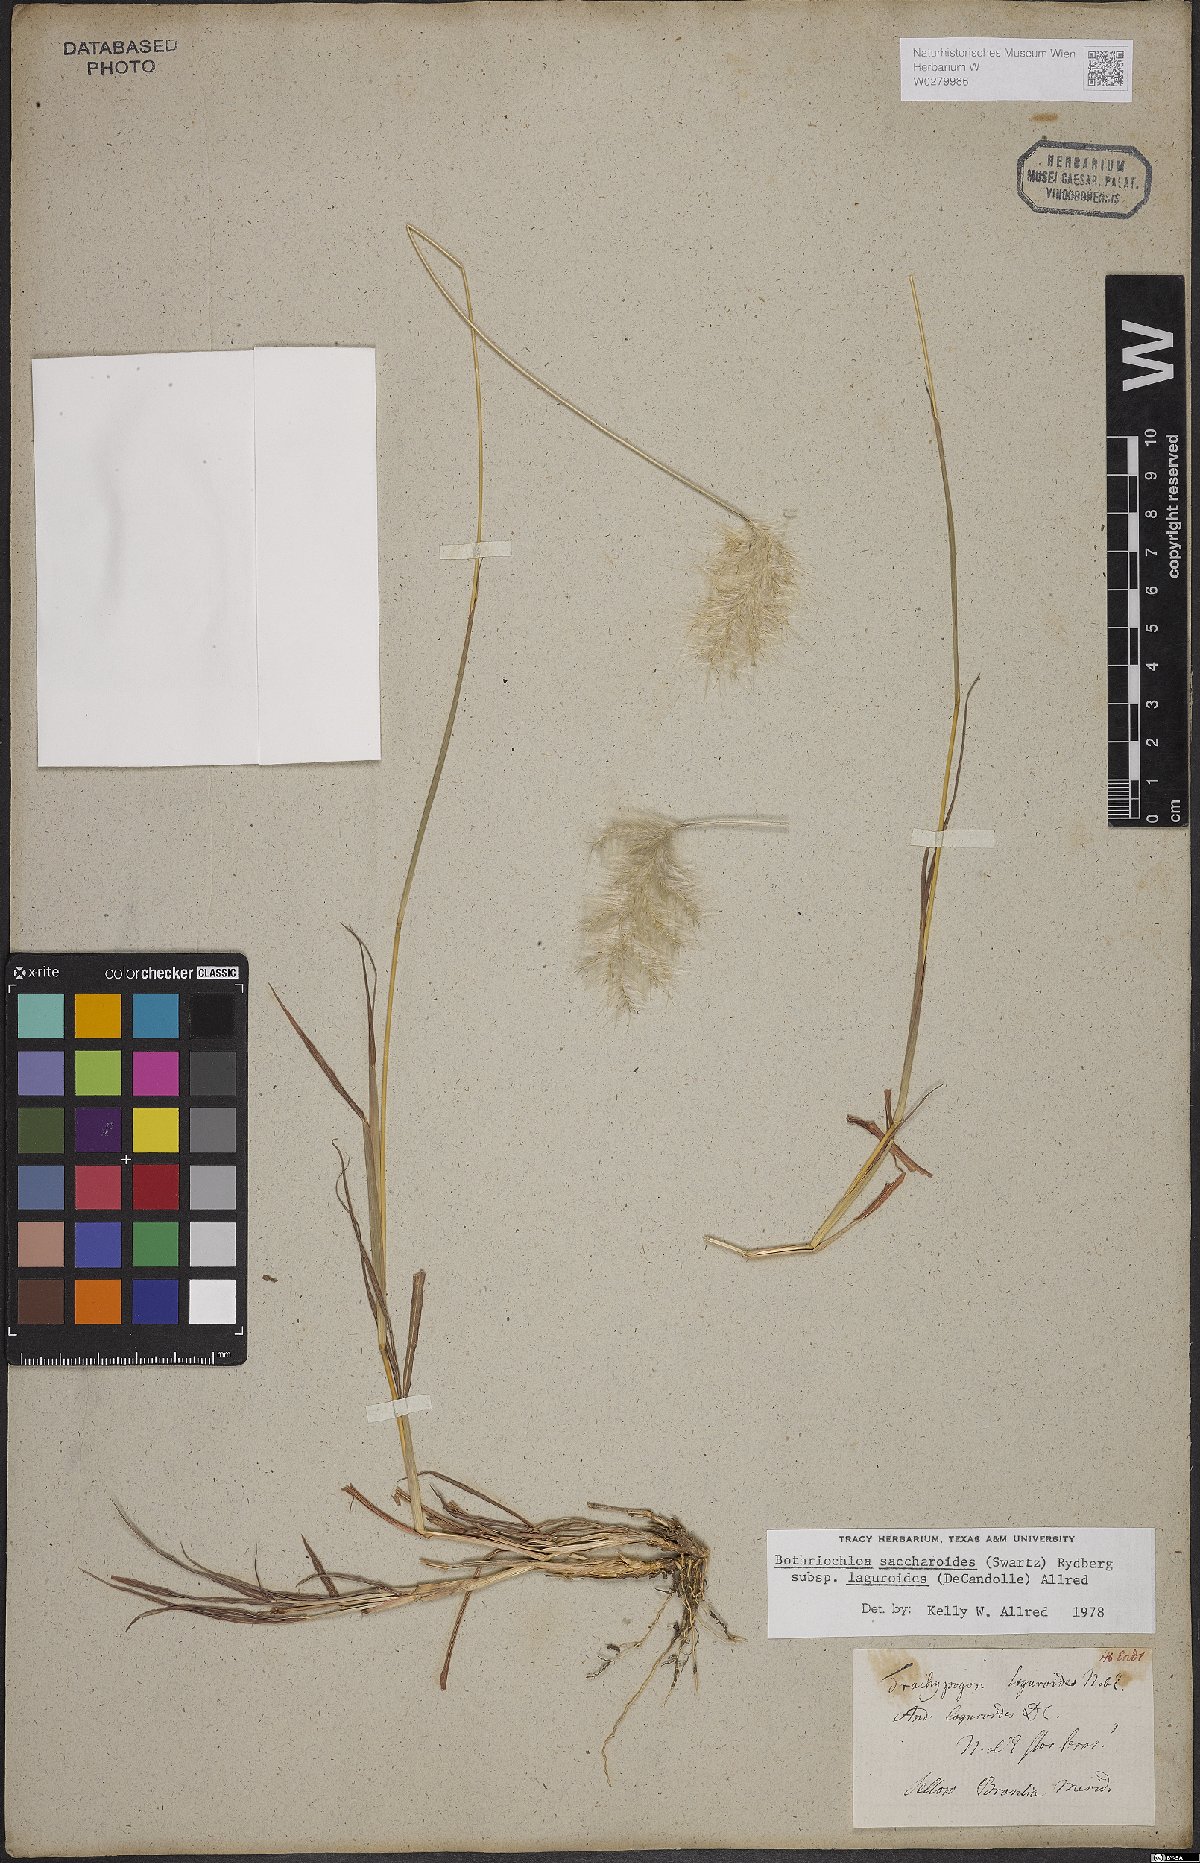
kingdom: Plantae
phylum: Tracheophyta
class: Liliopsida
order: Poales
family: Poaceae
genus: Bothriochloa
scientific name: Bothriochloa saccharoides
